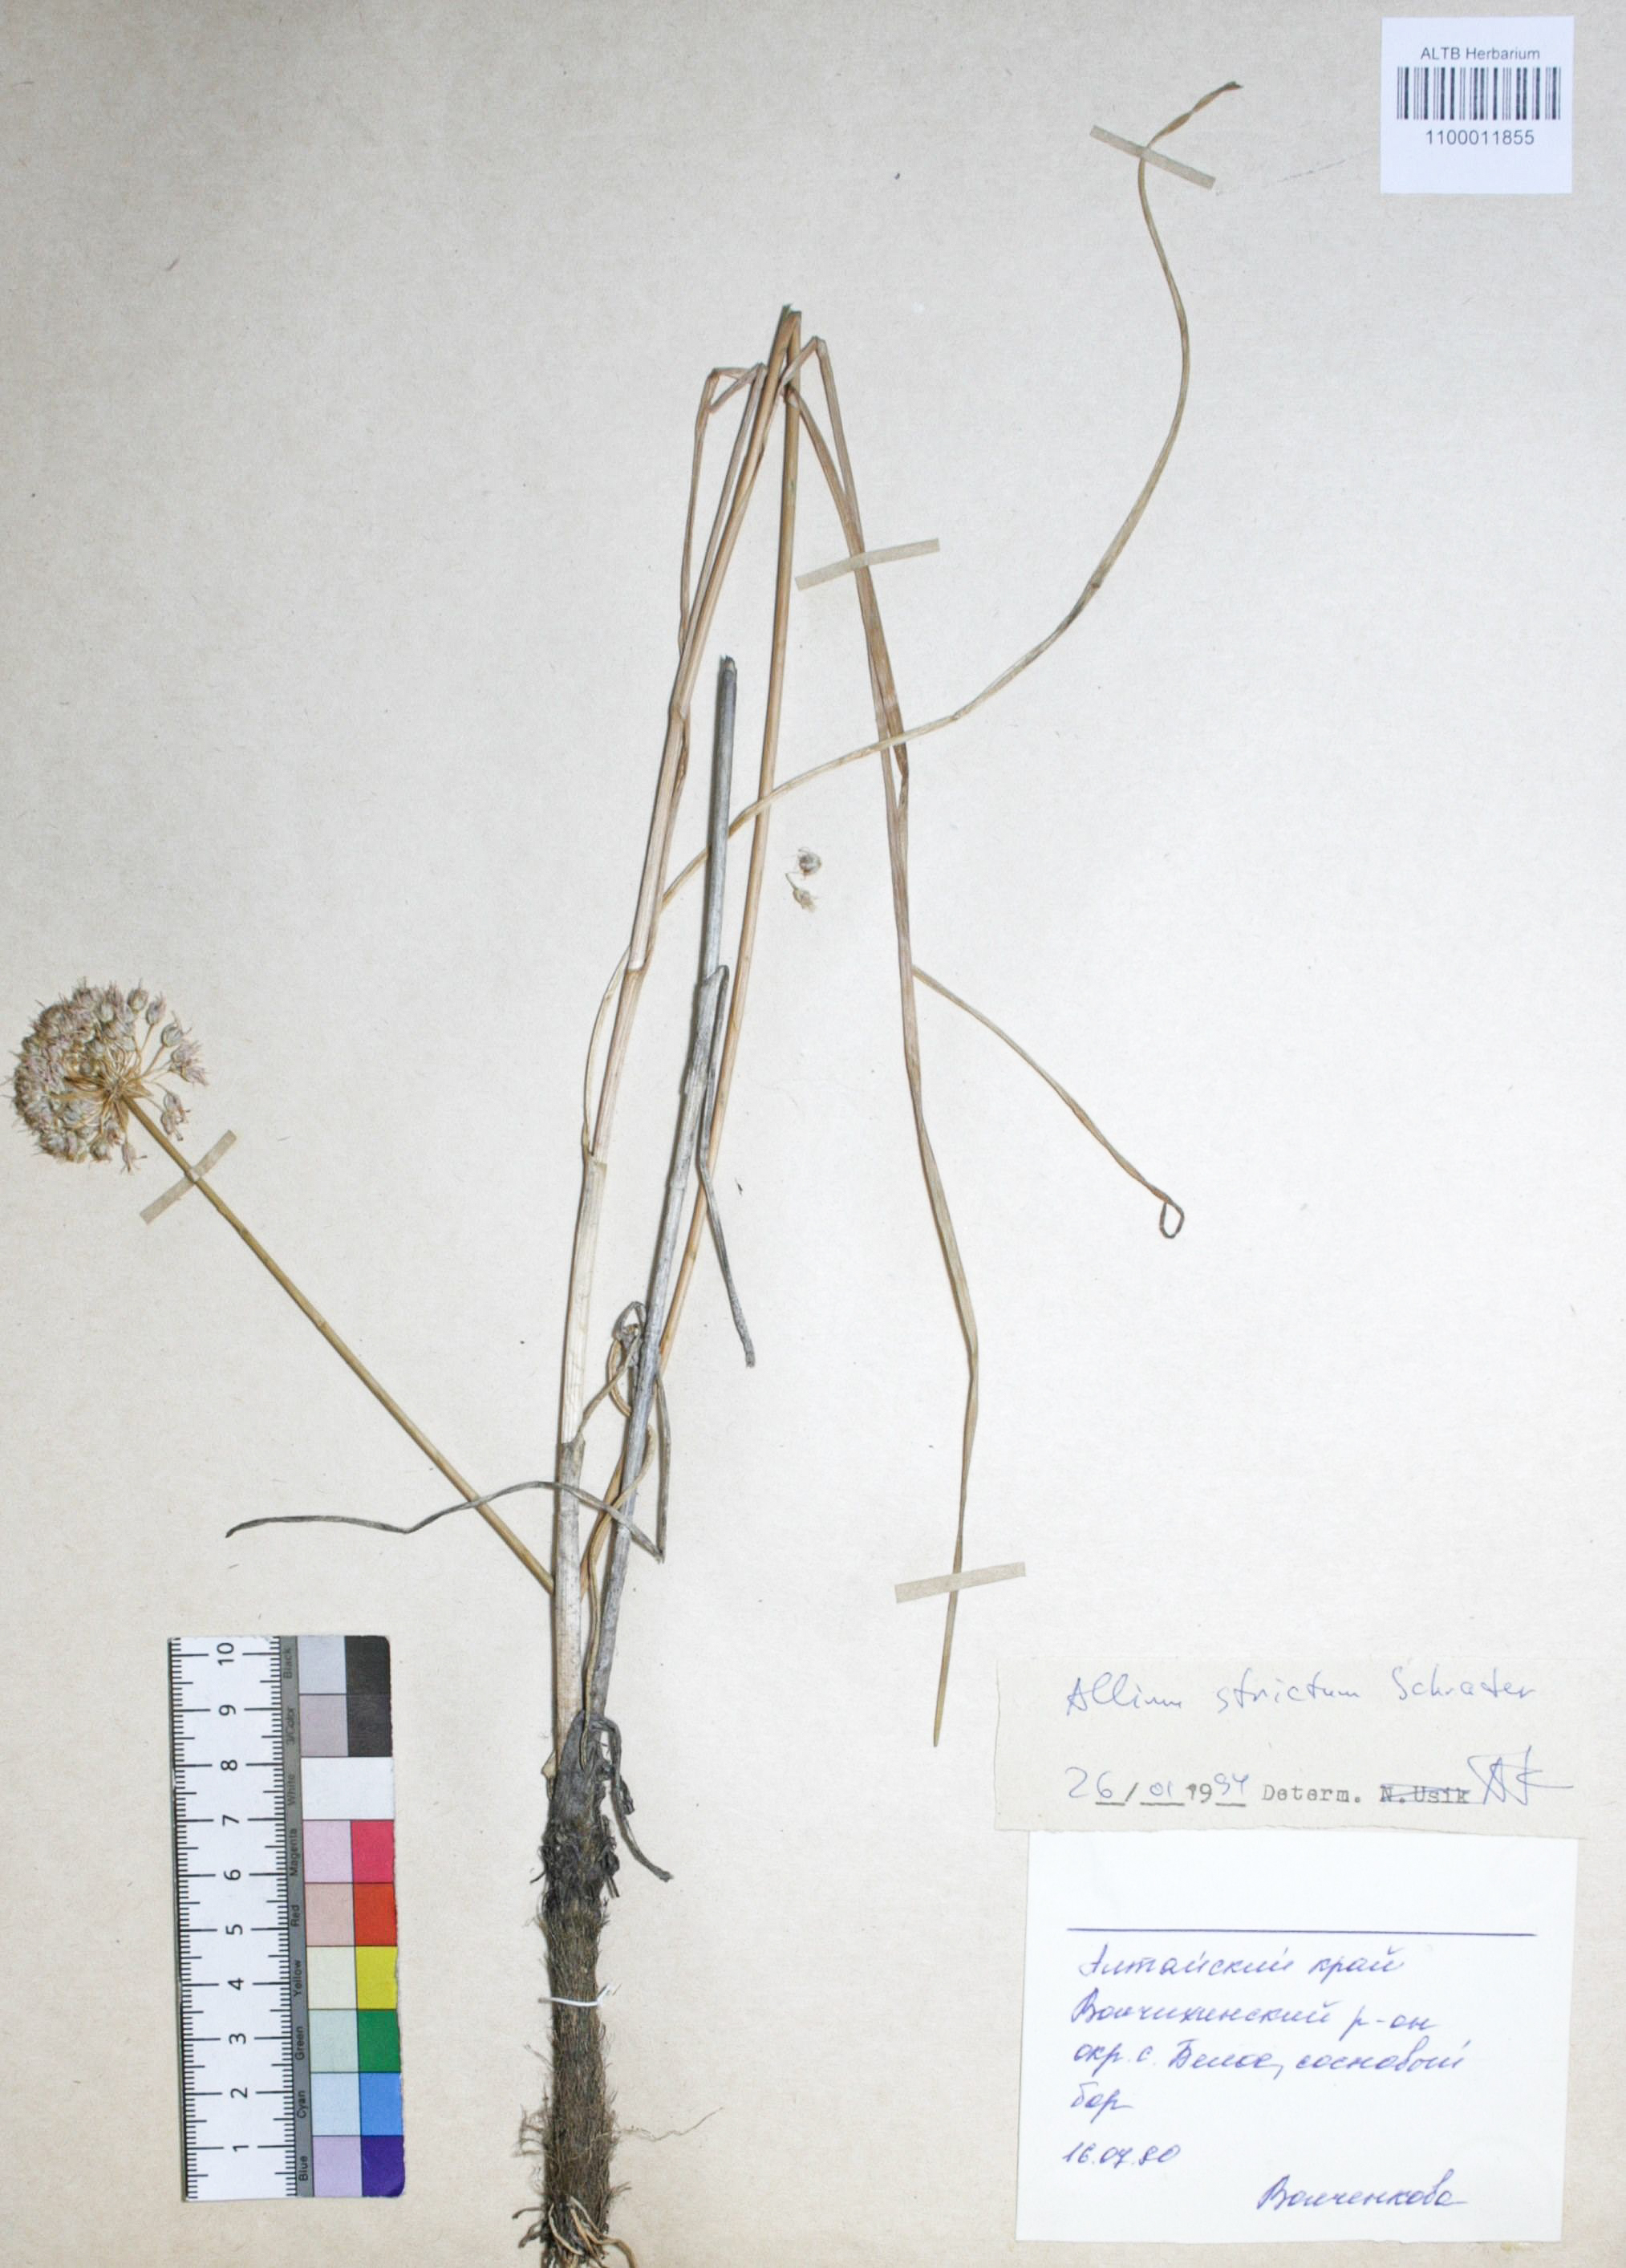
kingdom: Plantae
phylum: Tracheophyta
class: Liliopsida
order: Asparagales
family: Amaryllidaceae
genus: Allium
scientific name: Allium strictum
